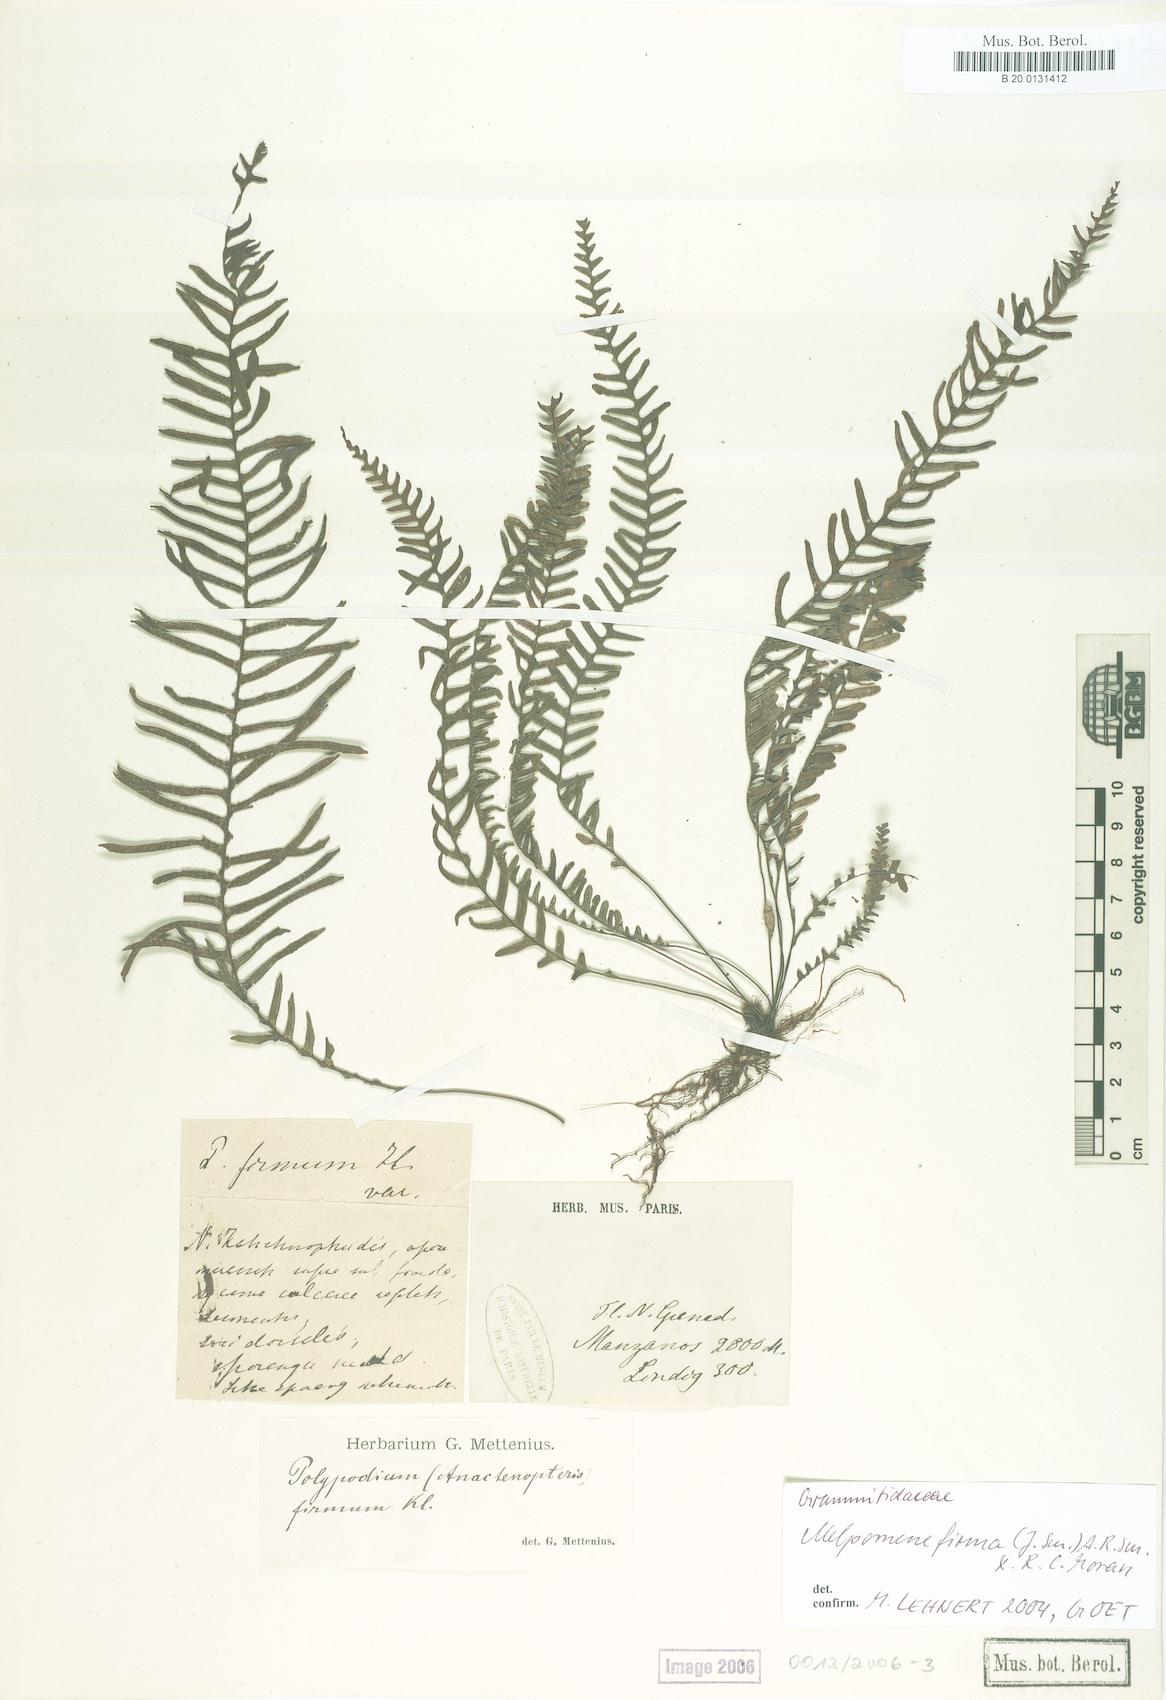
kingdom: Plantae
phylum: Tracheophyta
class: Polypodiopsida
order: Polypodiales
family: Polypodiaceae
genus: Melpomene
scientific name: Melpomene firma
